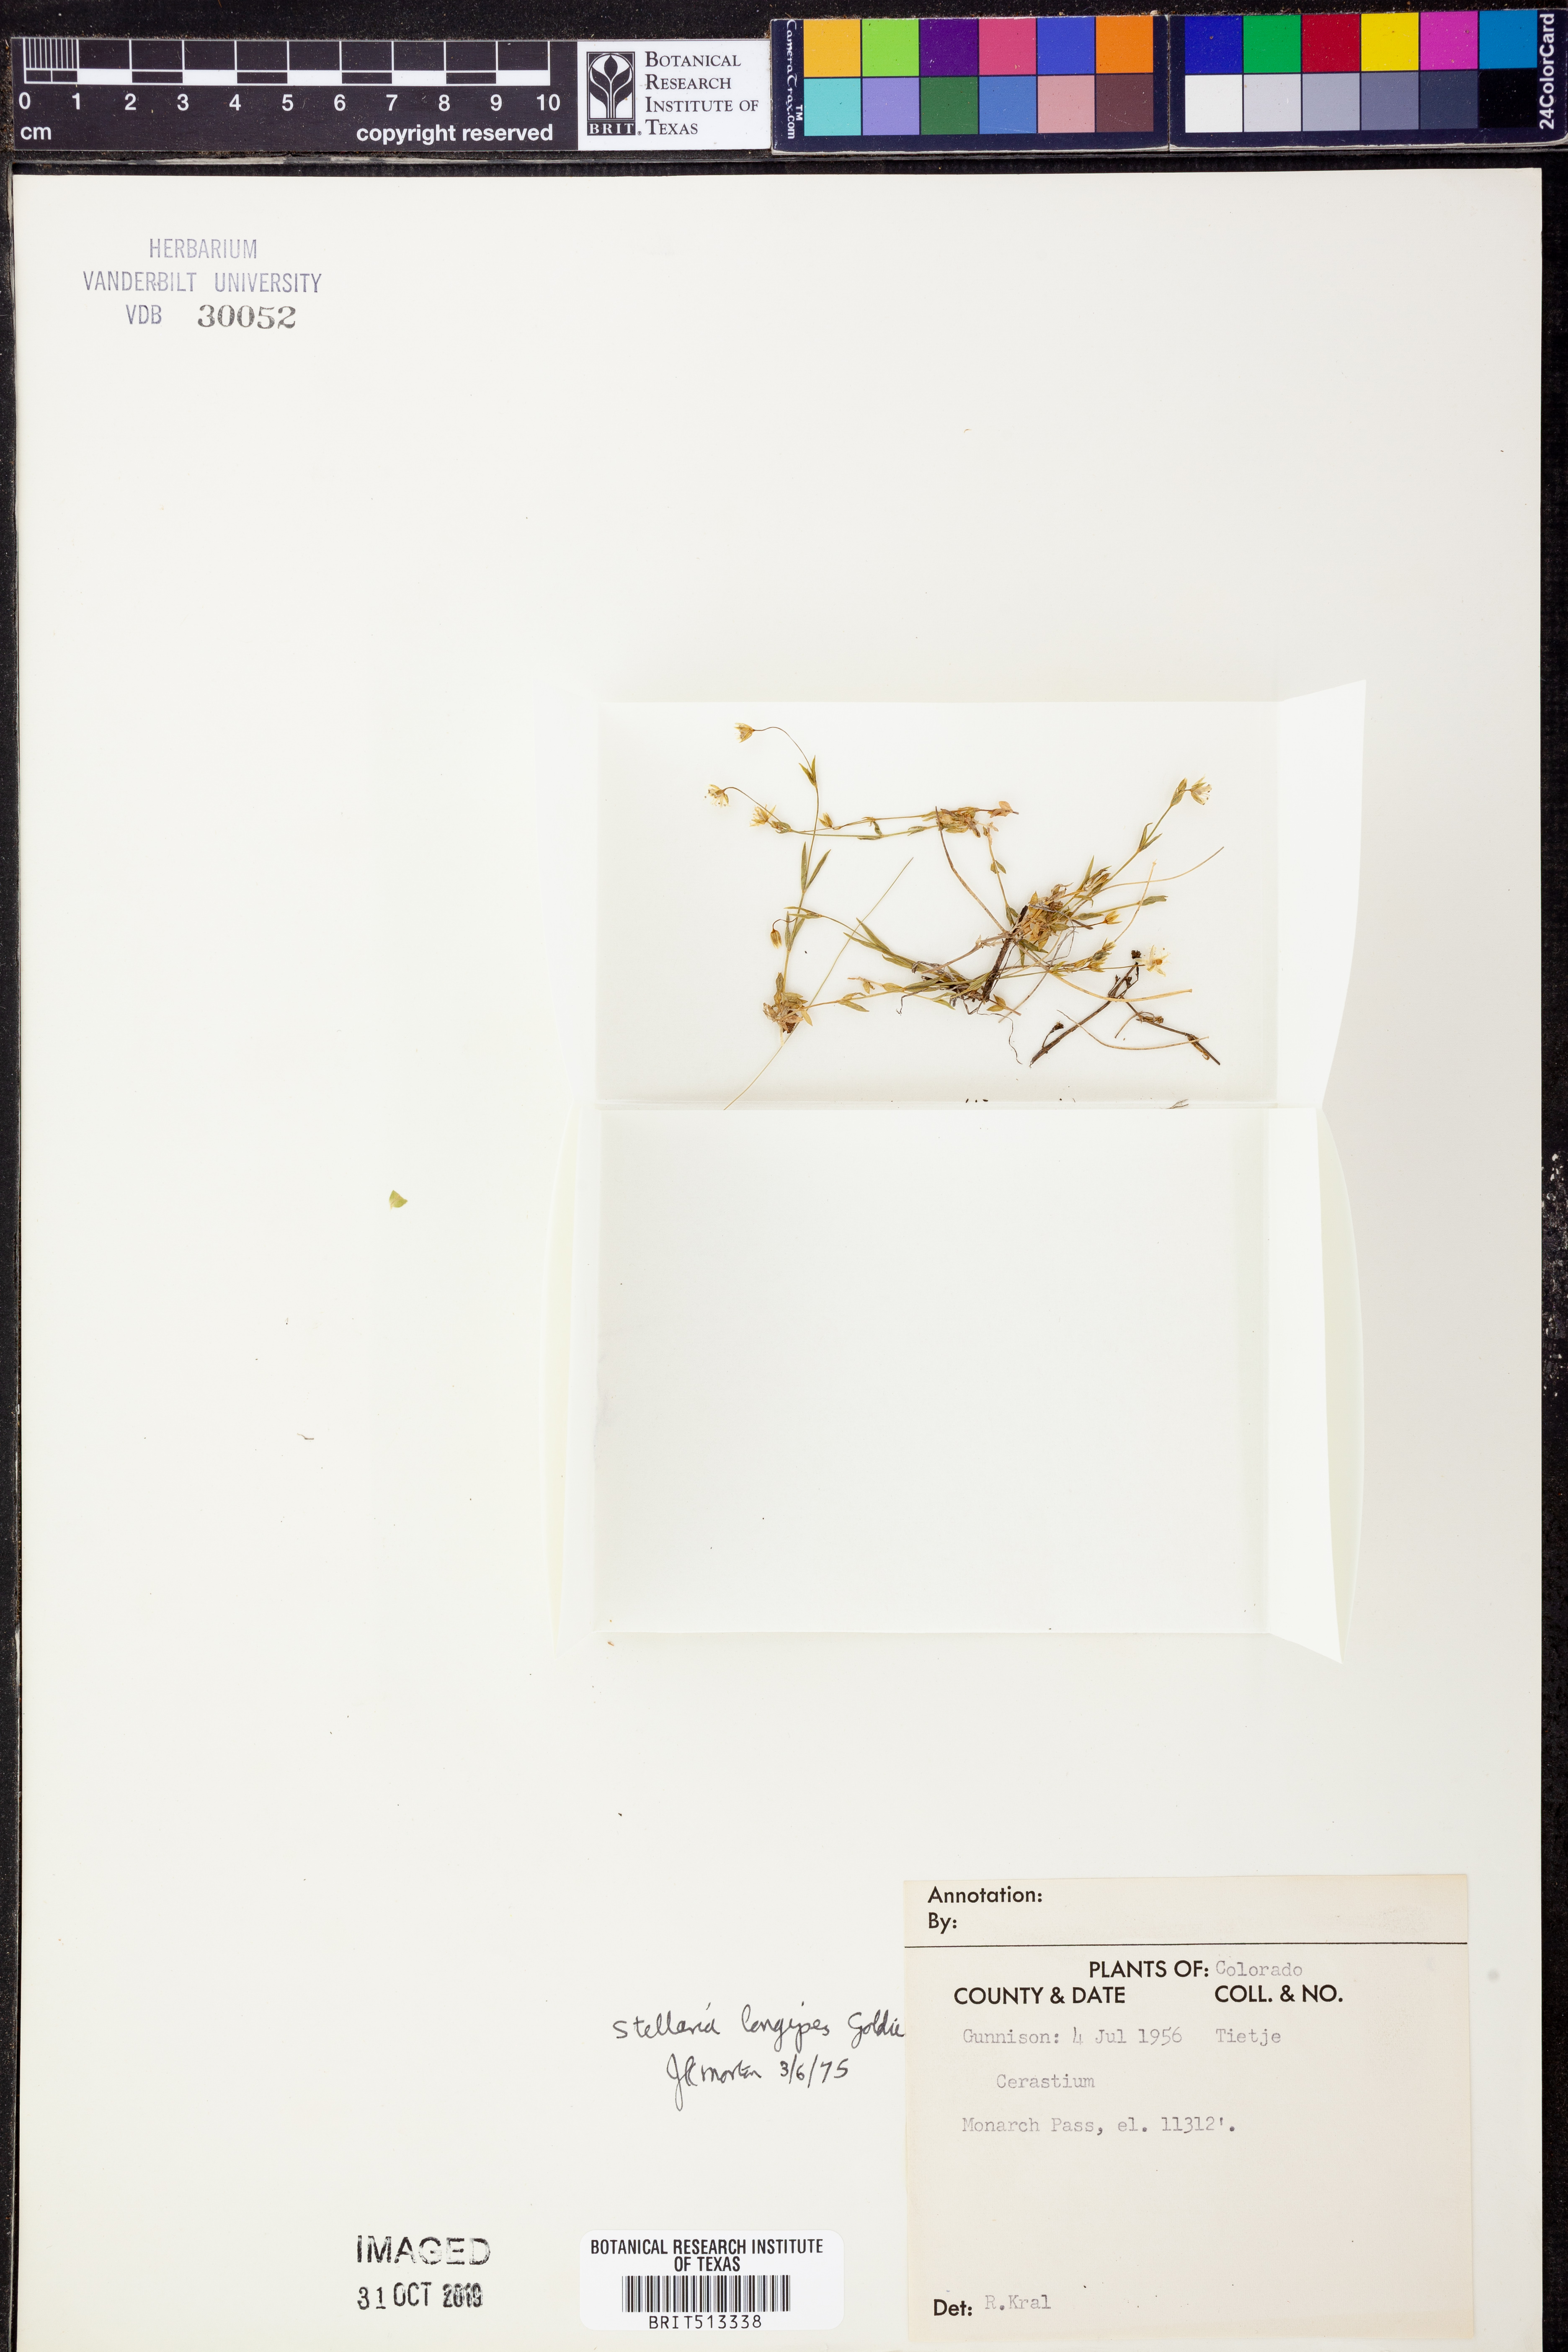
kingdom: Plantae
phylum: Tracheophyta
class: Magnoliopsida
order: Caryophyllales
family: Caryophyllaceae
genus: Stellaria
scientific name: Stellaria longipes
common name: Goldie's starwort
